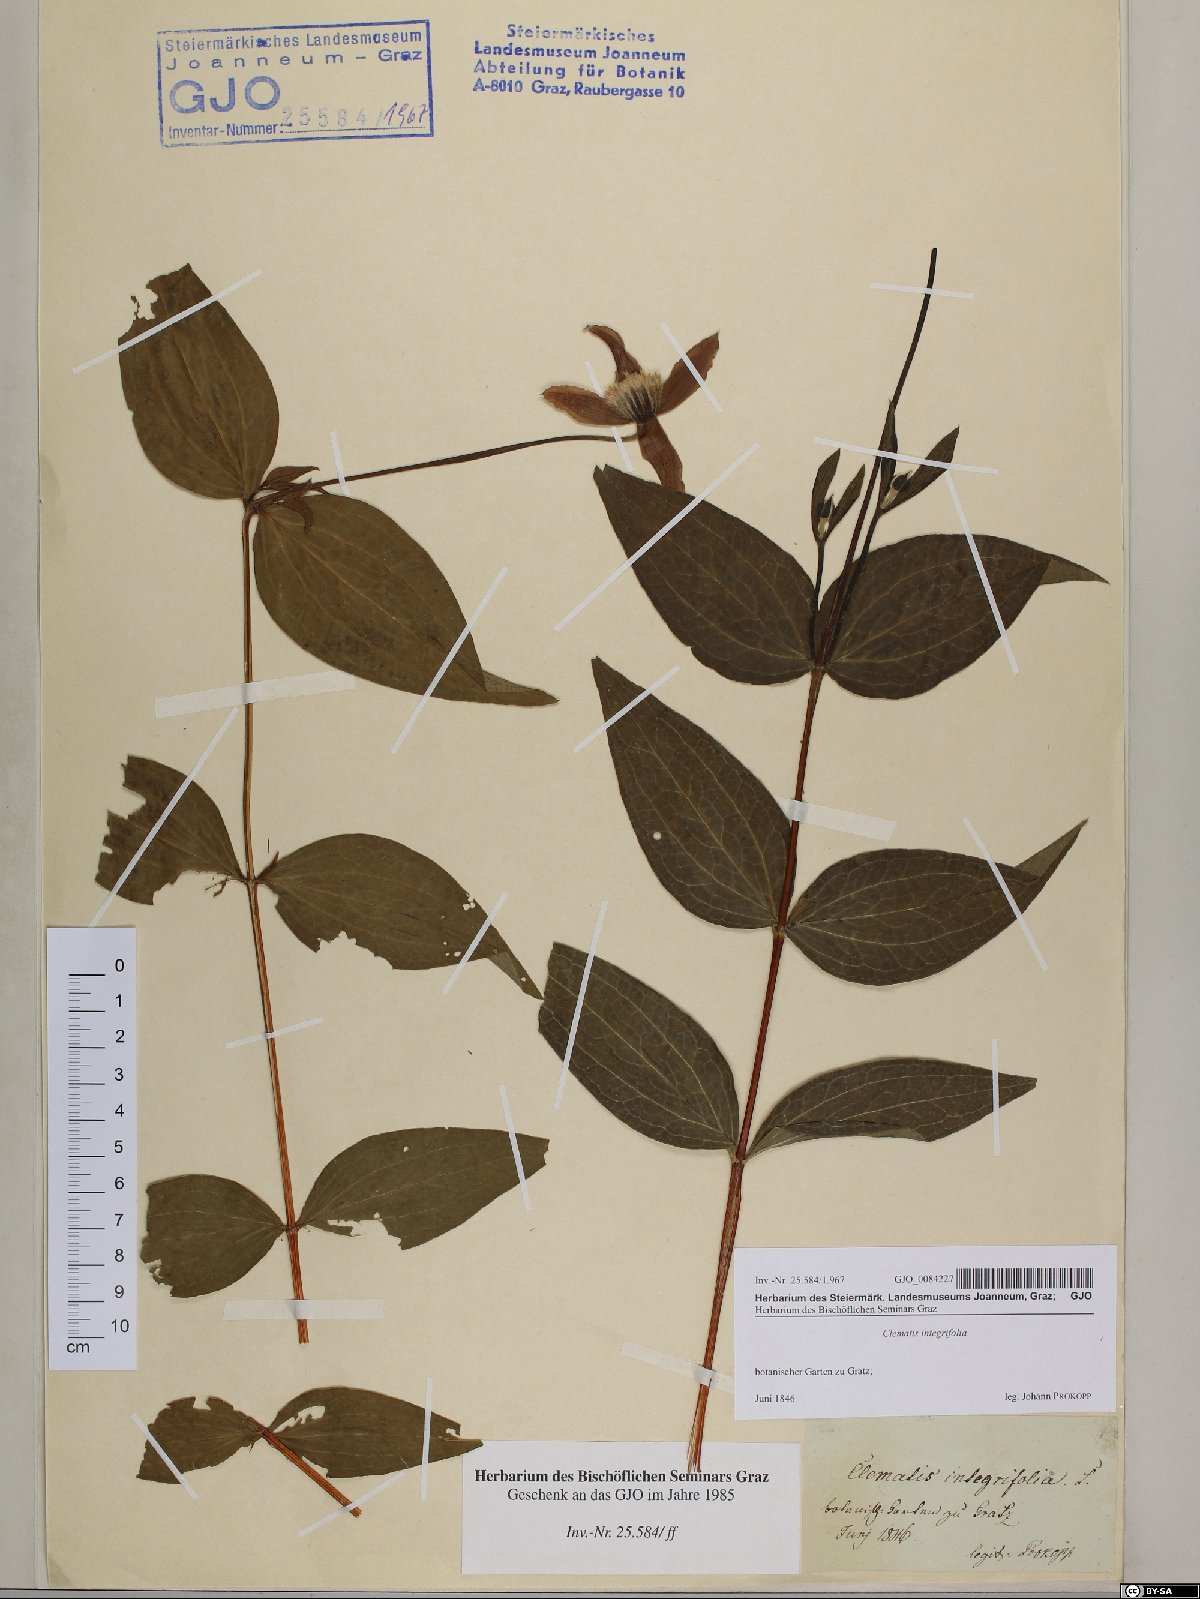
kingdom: Plantae
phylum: Tracheophyta
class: Magnoliopsida
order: Ranunculales
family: Ranunculaceae
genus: Clematis
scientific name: Clematis integrifolia
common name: Solitary clematis
